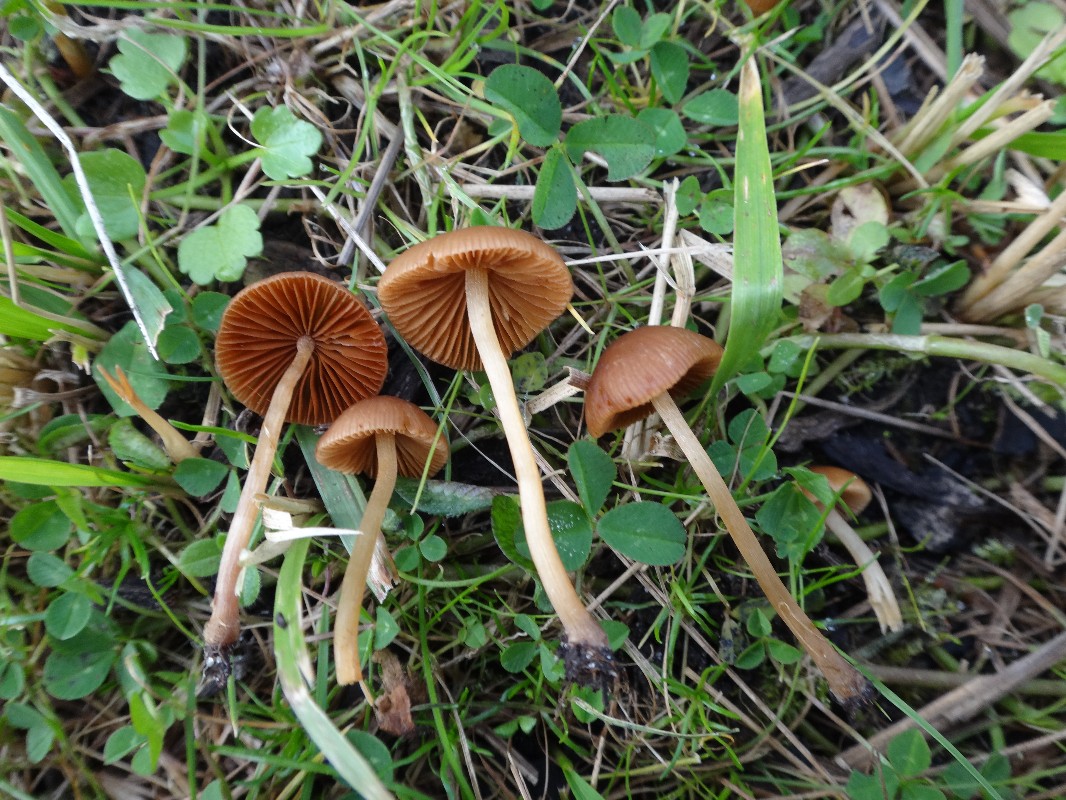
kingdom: Fungi
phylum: Basidiomycota
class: Agaricomycetes
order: Agaricales
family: Bolbitiaceae
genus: Conocybe
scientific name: Conocybe juniana
